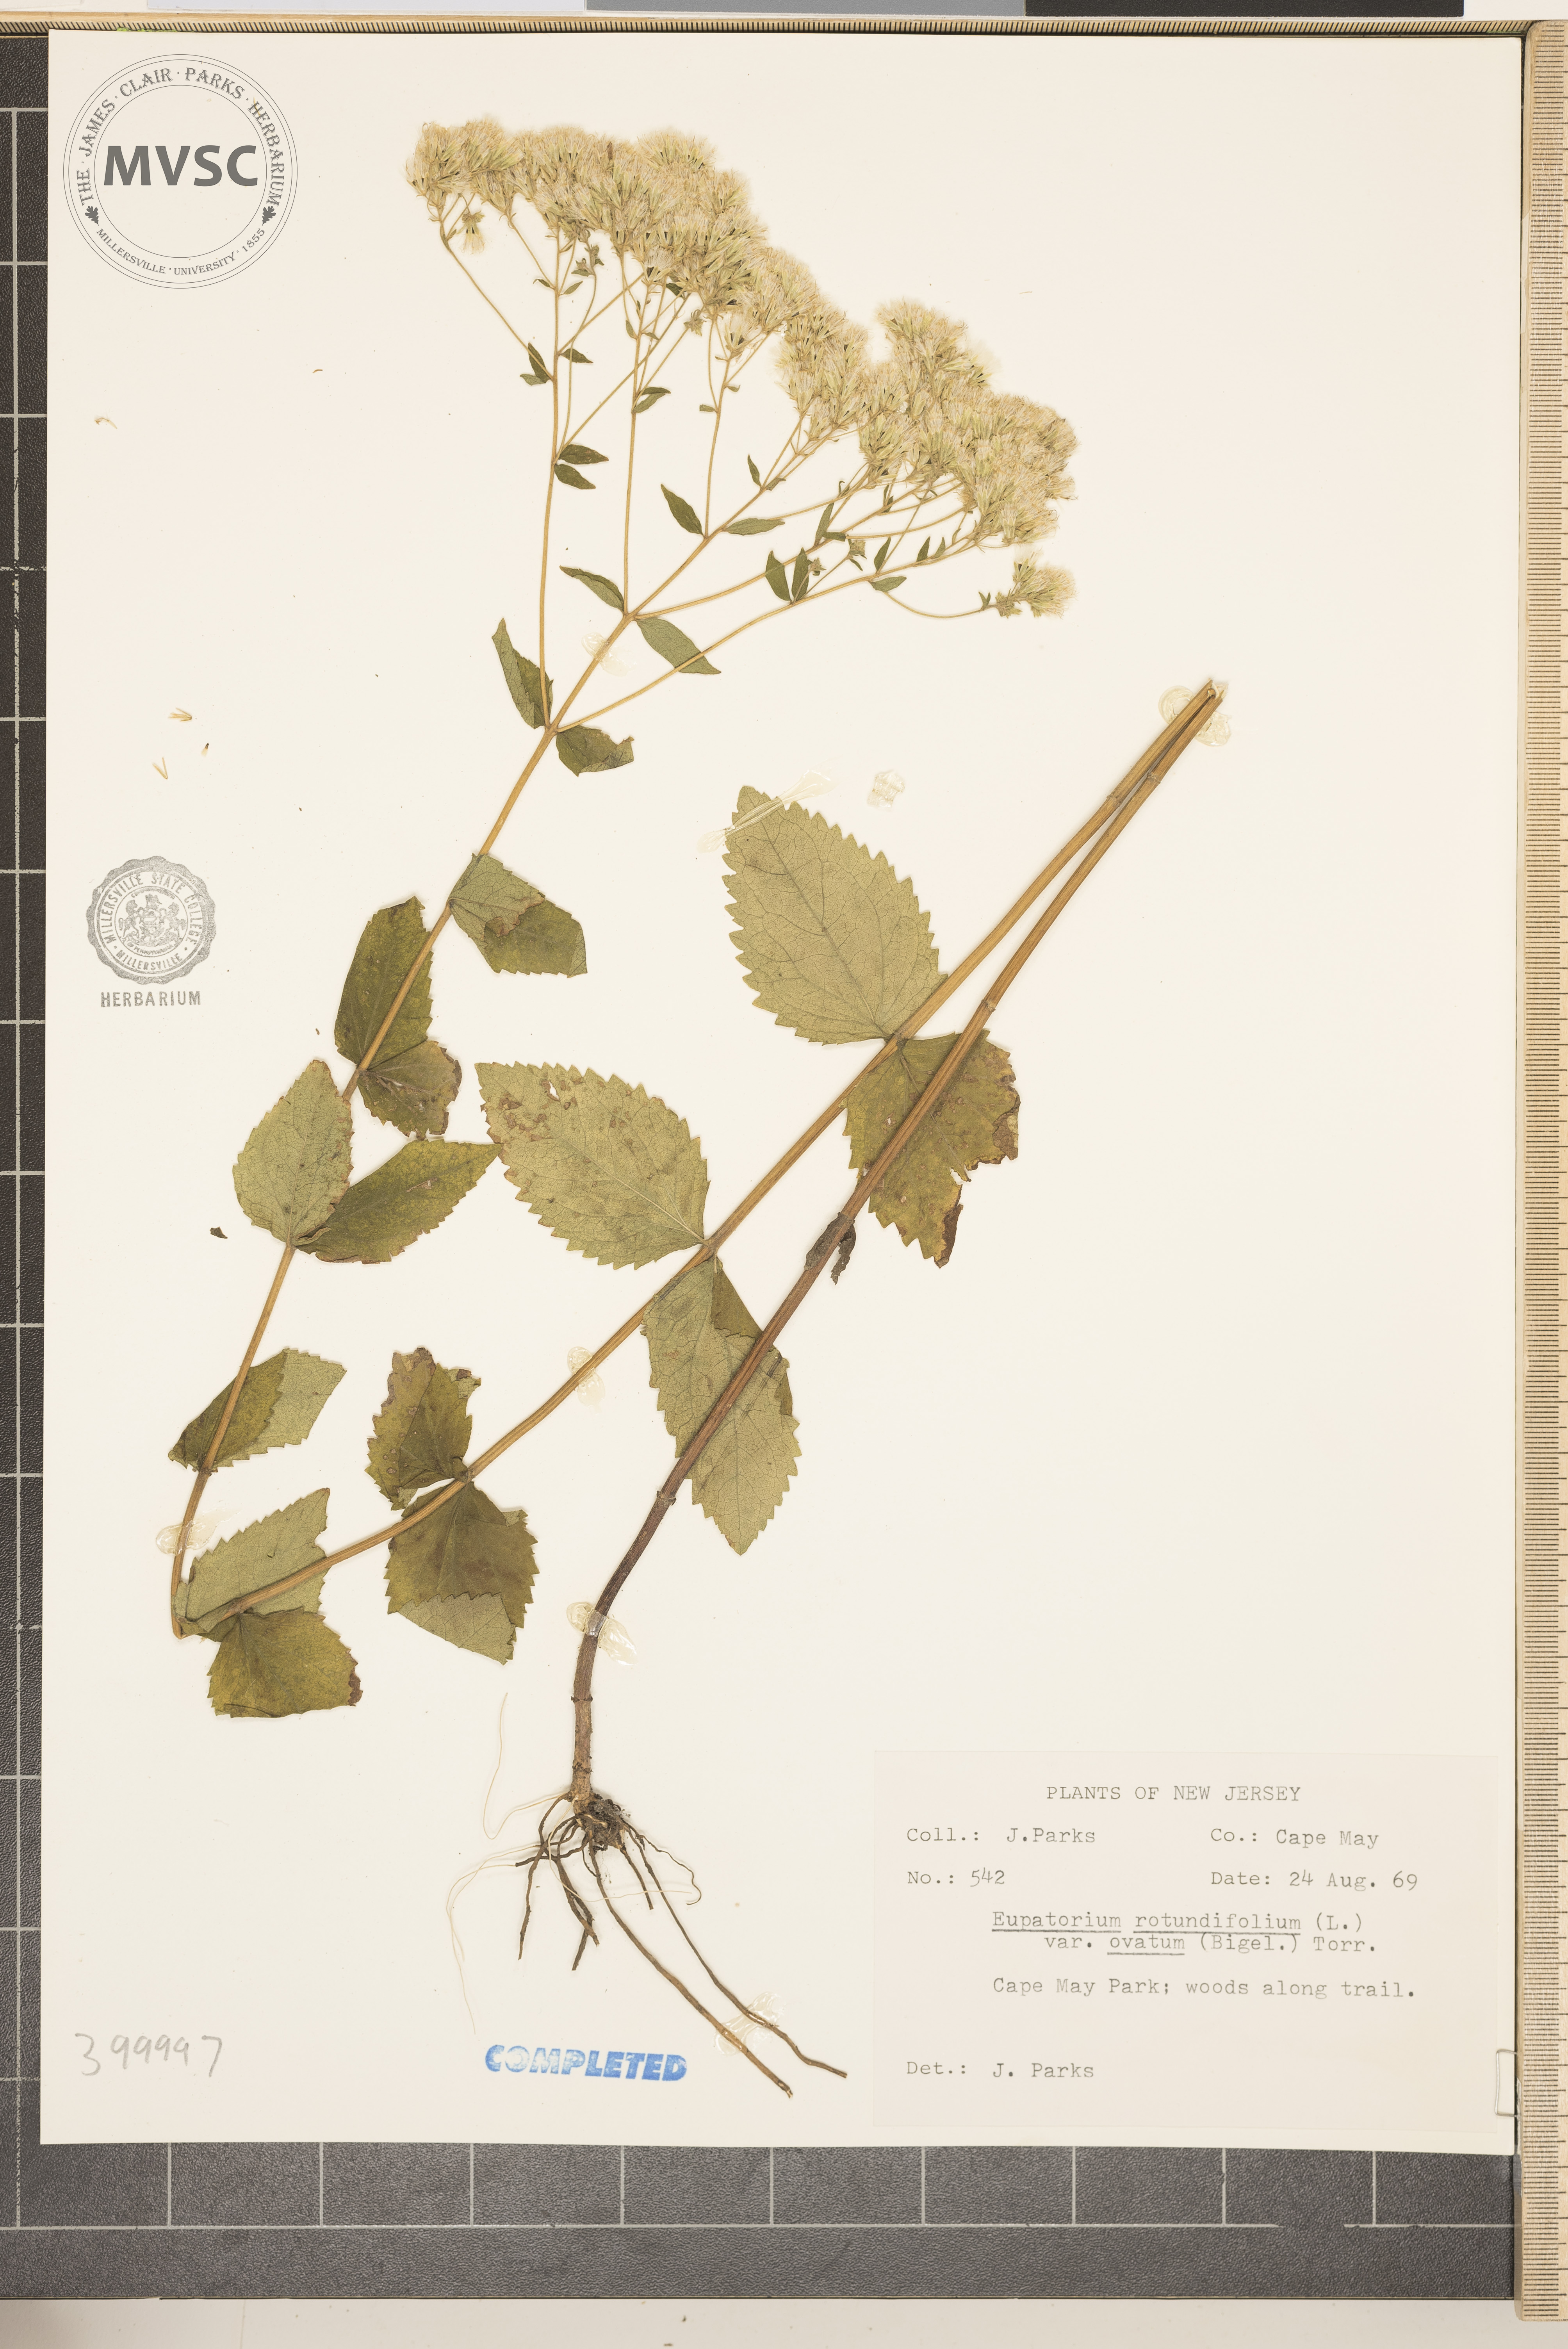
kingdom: Plantae
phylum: Tracheophyta
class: Magnoliopsida
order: Asterales
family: Asteraceae
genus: Eupatorium
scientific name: Eupatorium rotundifolium
